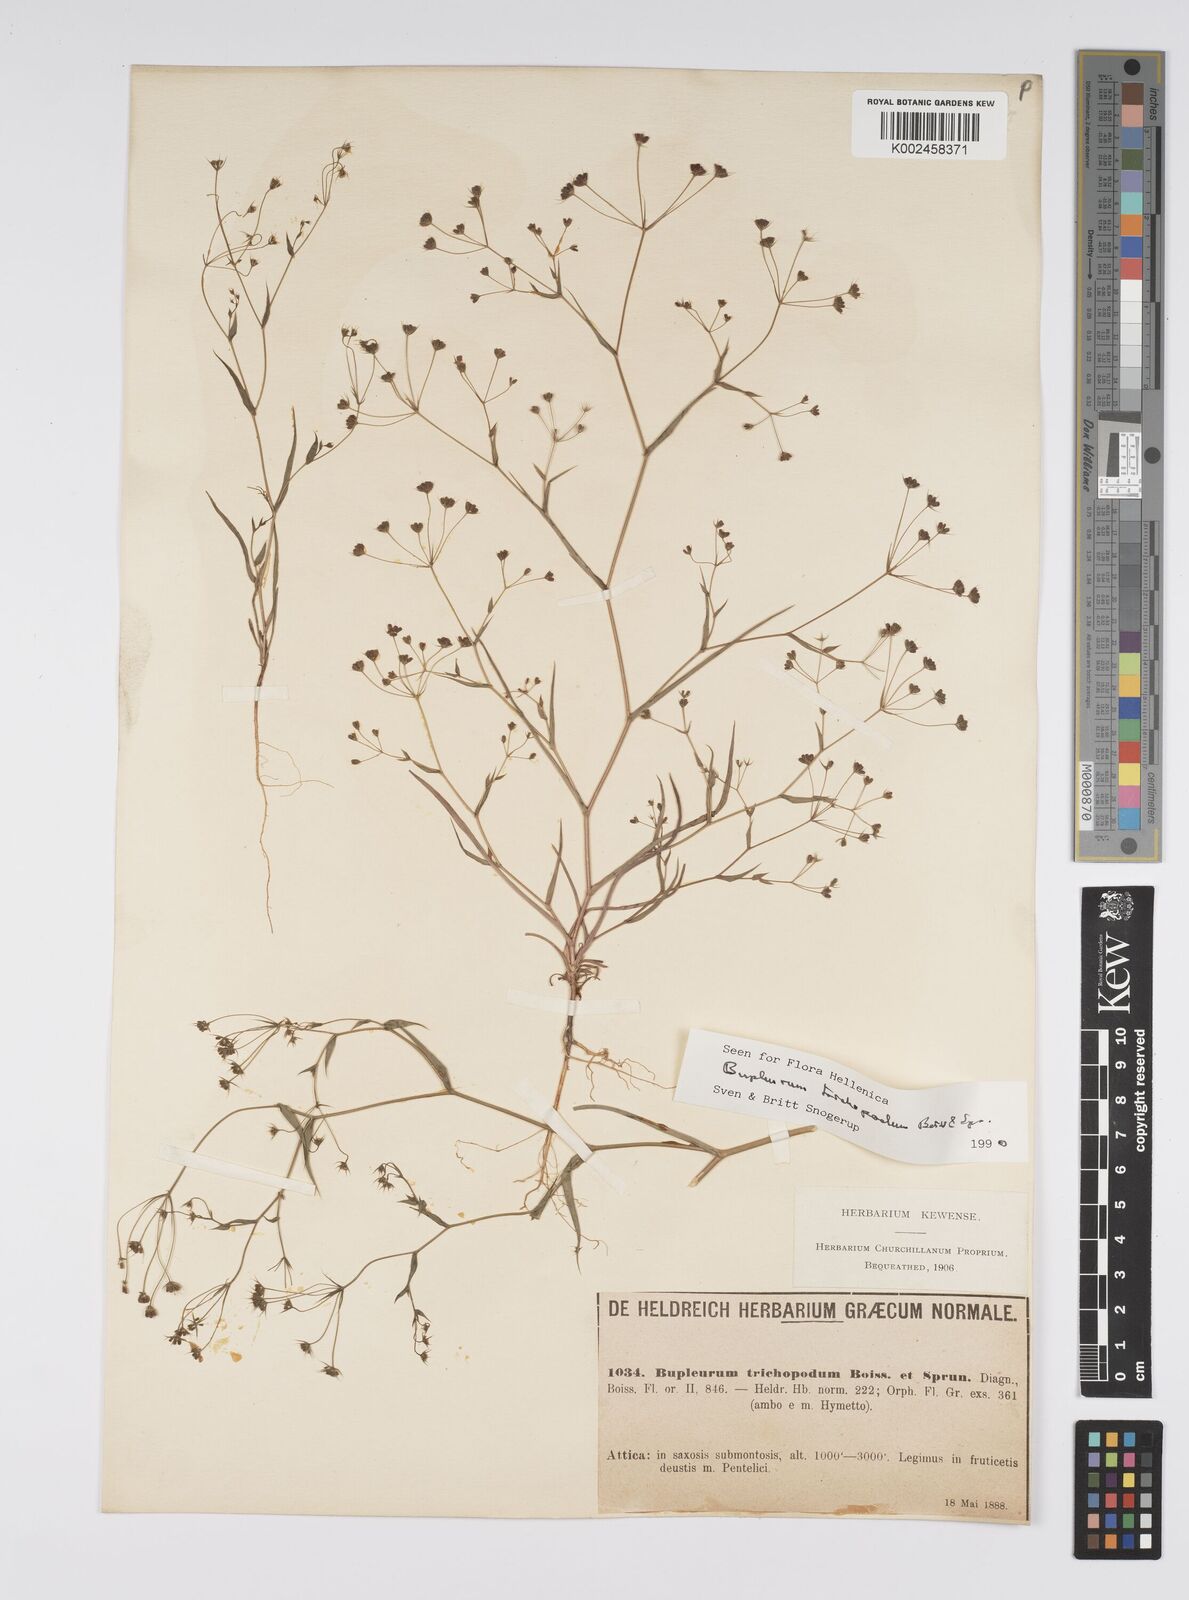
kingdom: Plantae
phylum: Tracheophyta
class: Magnoliopsida
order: Apiales
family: Apiaceae
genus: Bupleurum
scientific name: Bupleurum trichopodum
